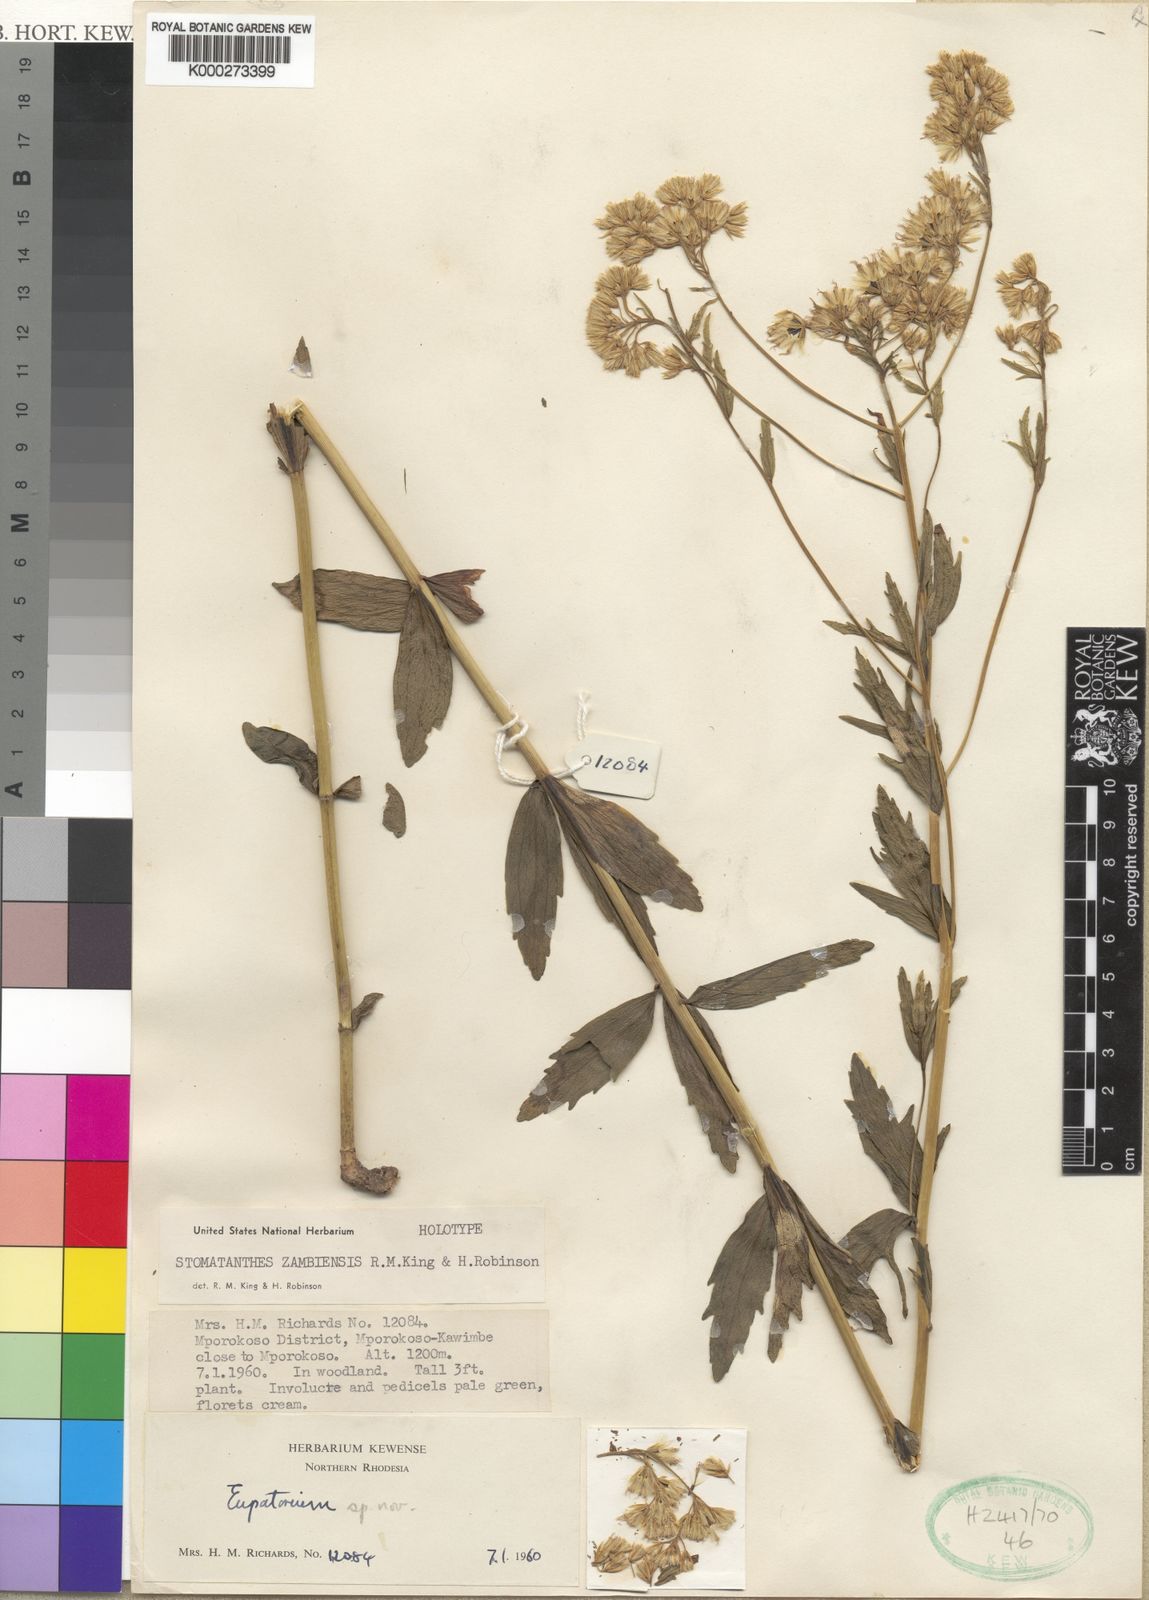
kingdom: Plantae
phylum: Tracheophyta
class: Magnoliopsida
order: Asterales
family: Asteraceae
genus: Criscianthus
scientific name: Criscianthus zambiensis
